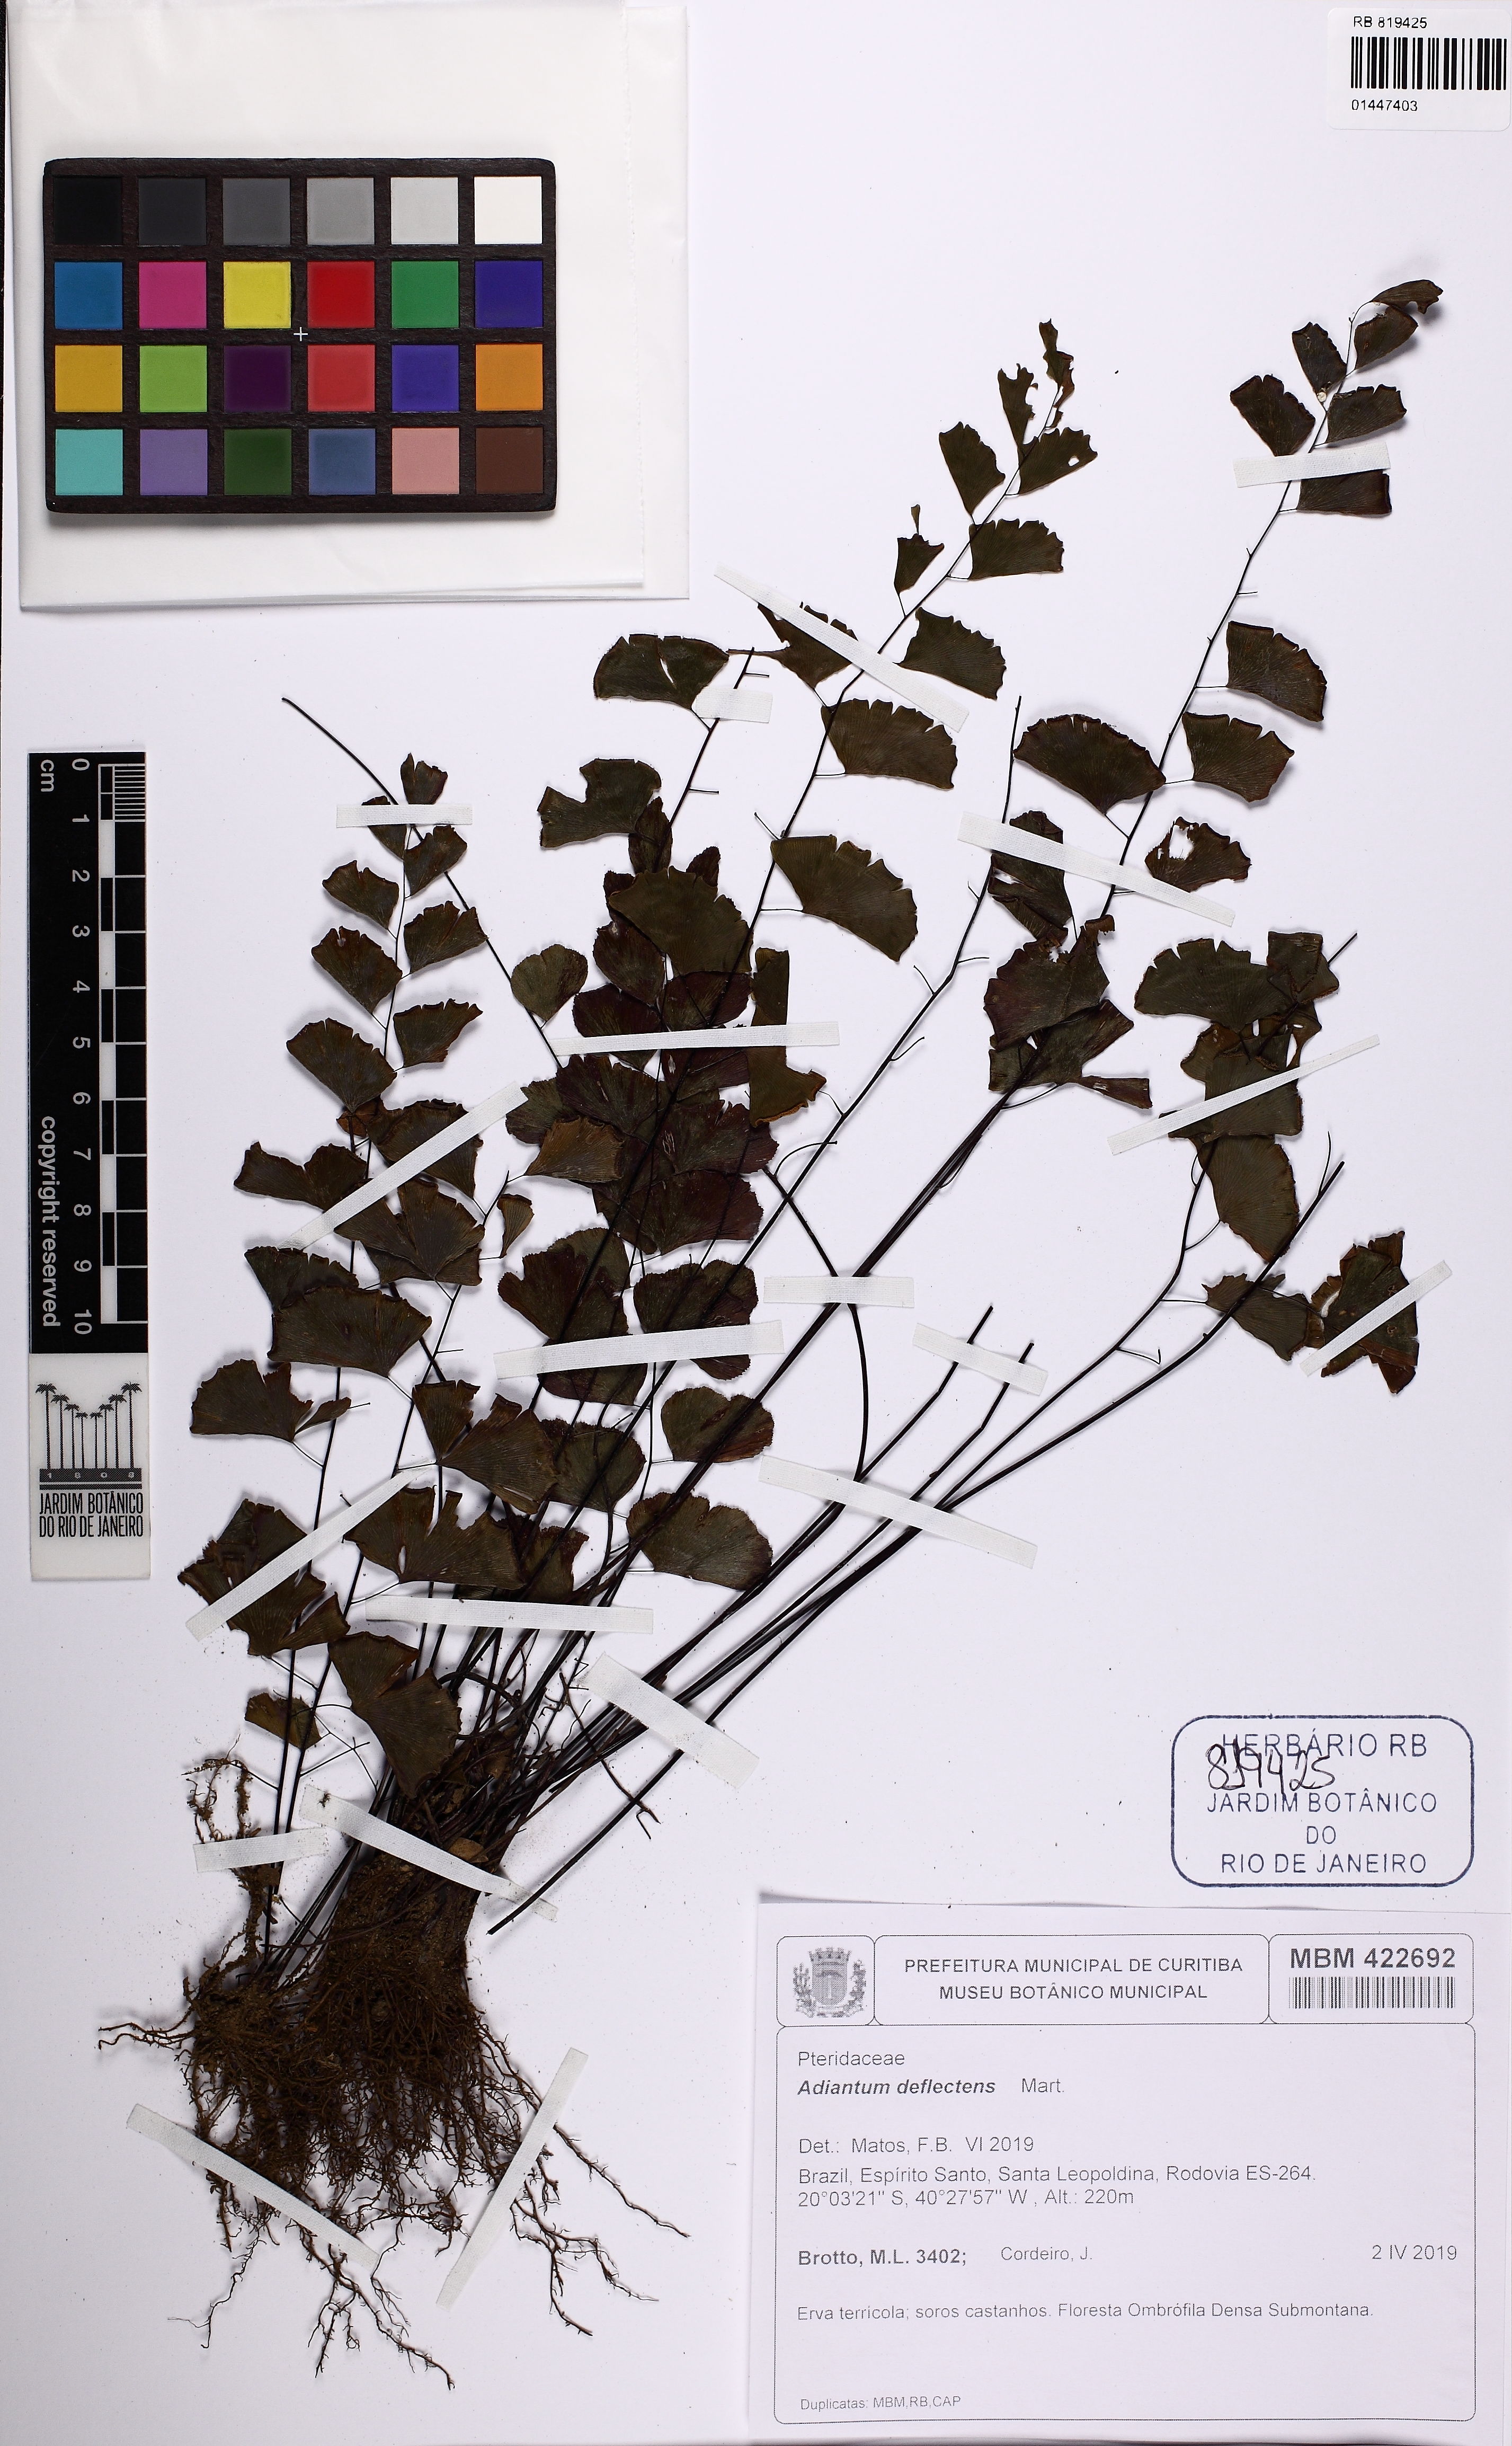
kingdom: Plantae
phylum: Tracheophyta
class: Polypodiopsida
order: Polypodiales
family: Pteridaceae
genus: Adiantum
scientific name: Adiantum deflectens
